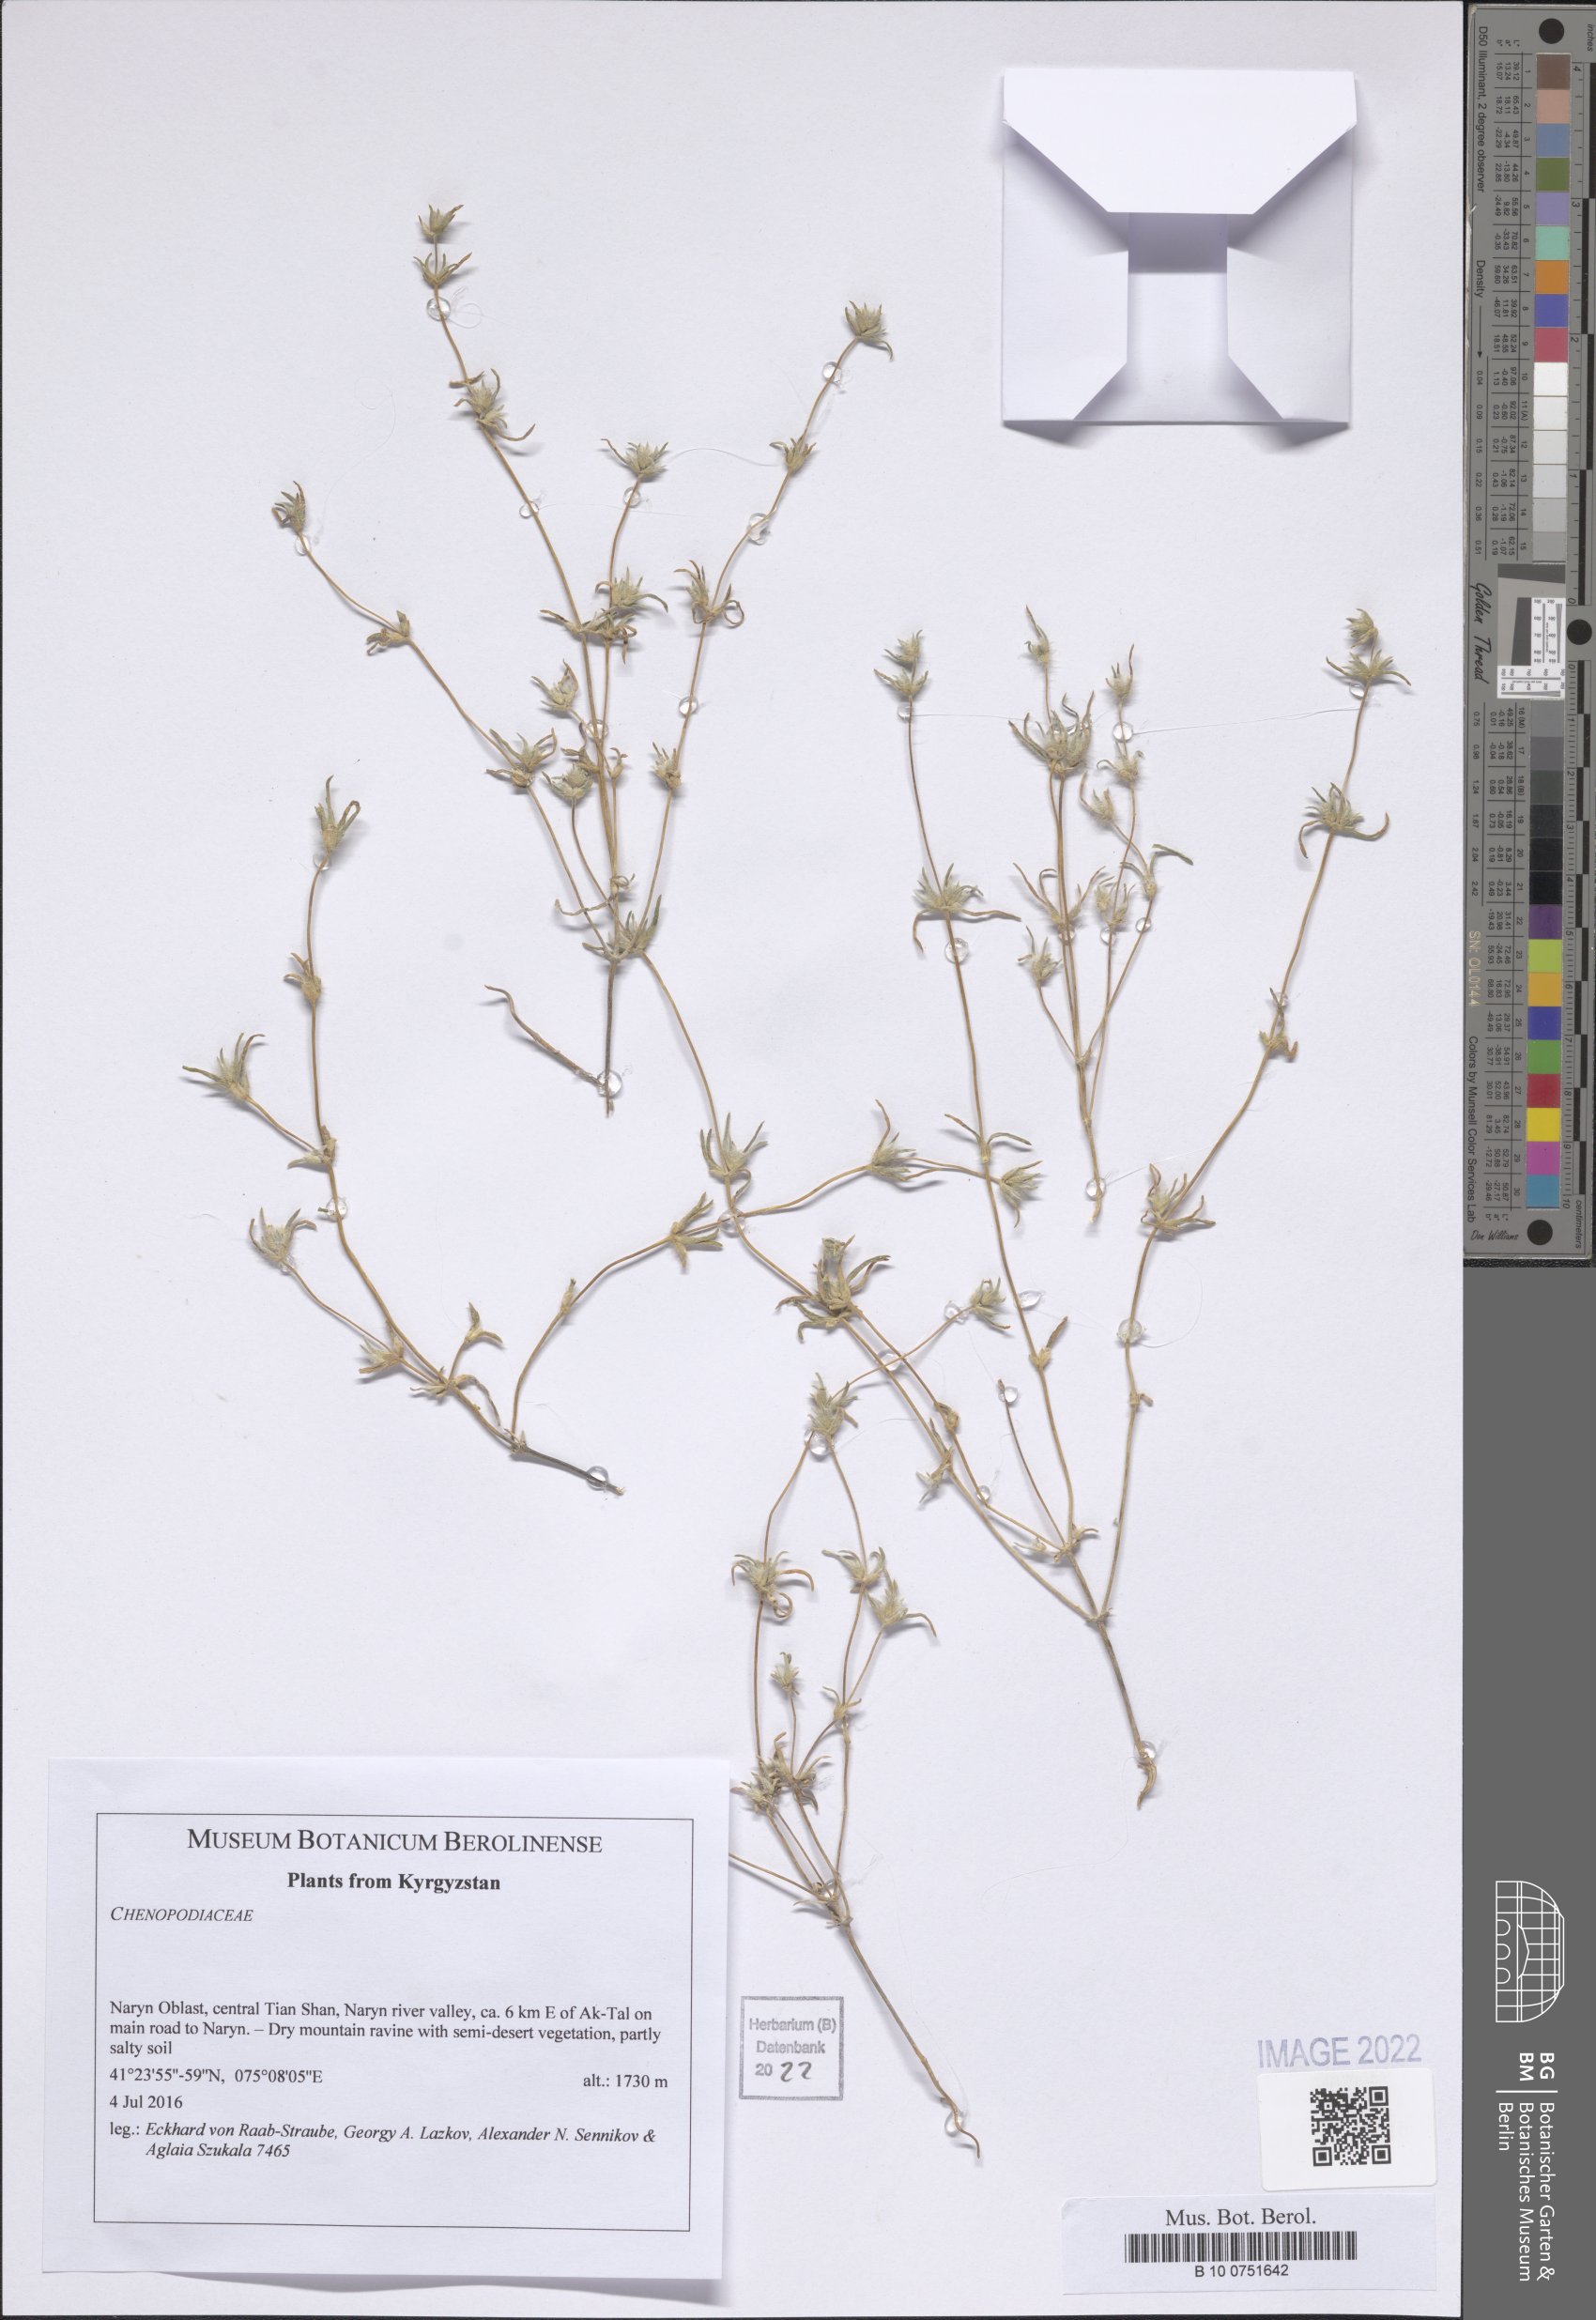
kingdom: Plantae
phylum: Tracheophyta
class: Magnoliopsida
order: Caryophyllales
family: Amaranthaceae
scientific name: Amaranthaceae
